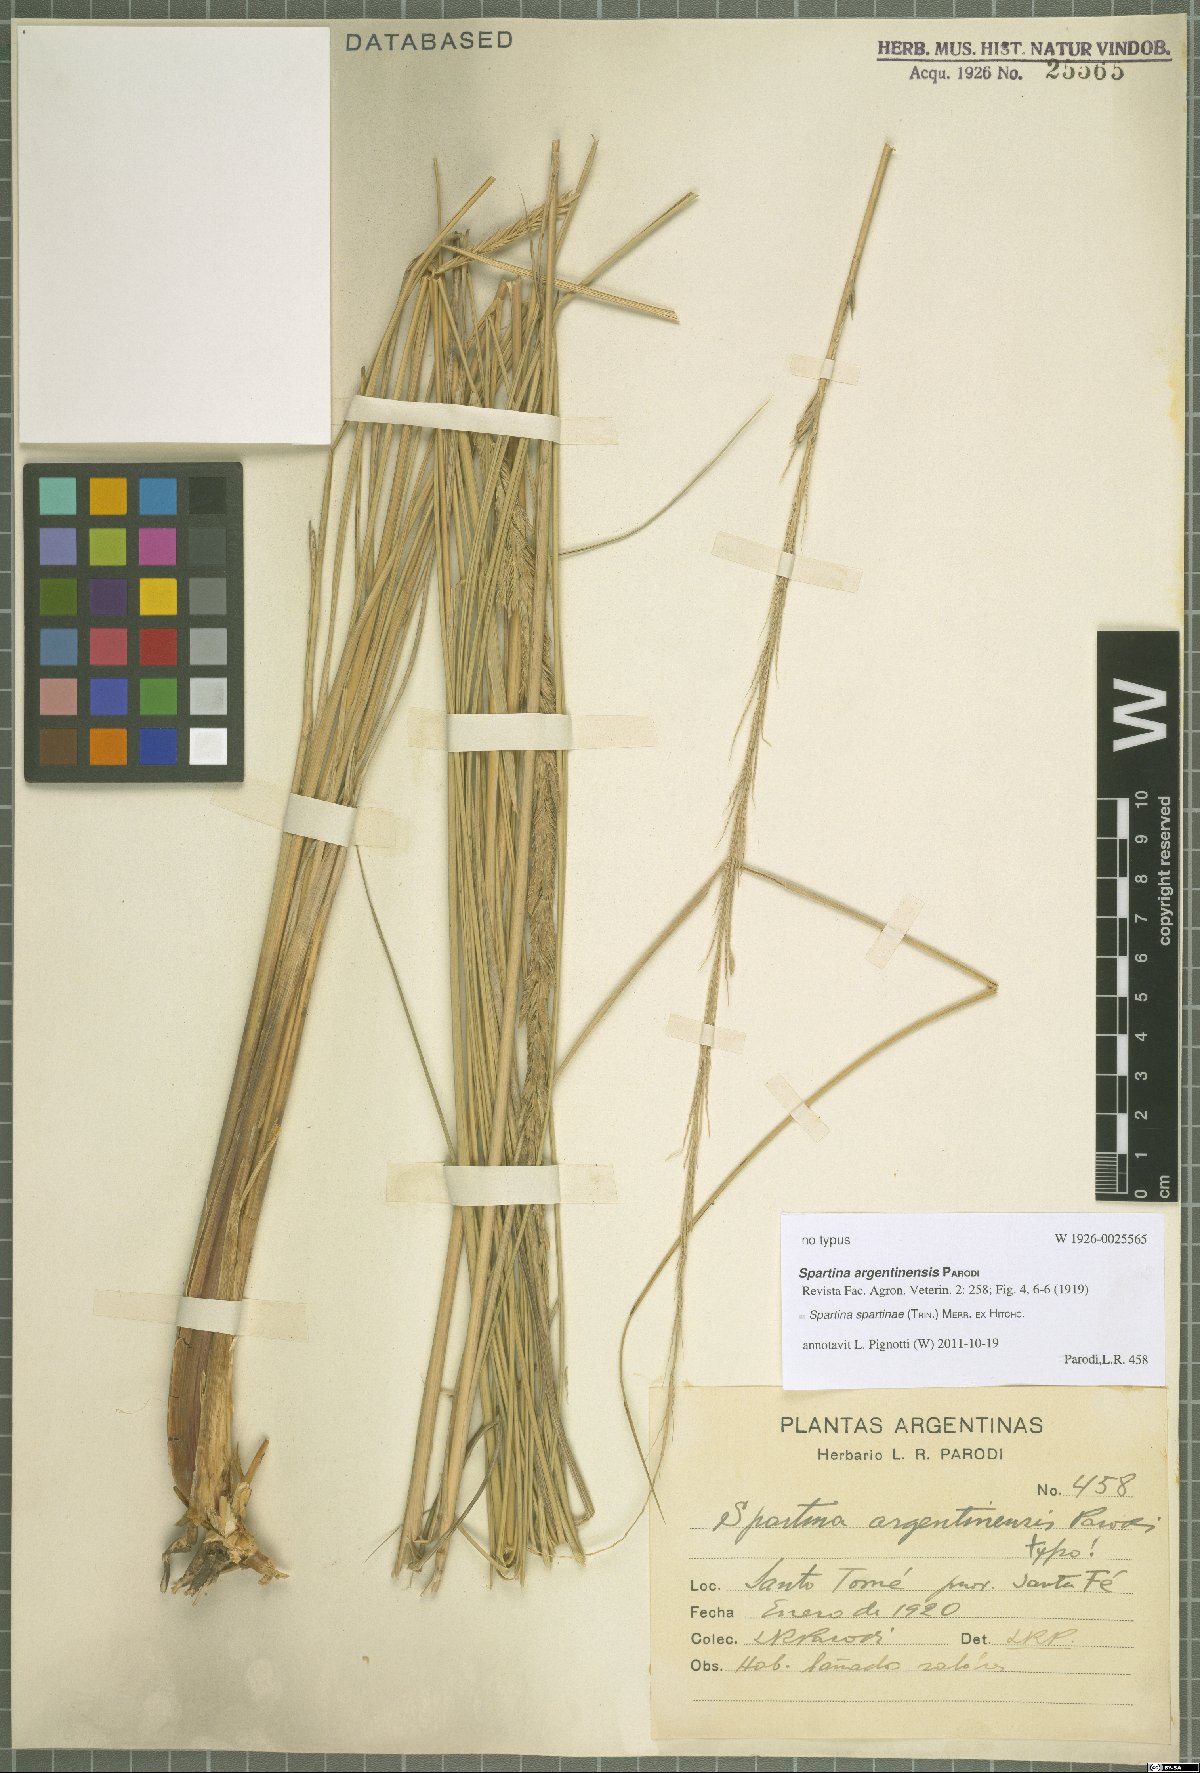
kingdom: Plantae
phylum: Tracheophyta
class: Liliopsida
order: Poales
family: Poaceae
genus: Sporobolus
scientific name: Sporobolus spartinae
